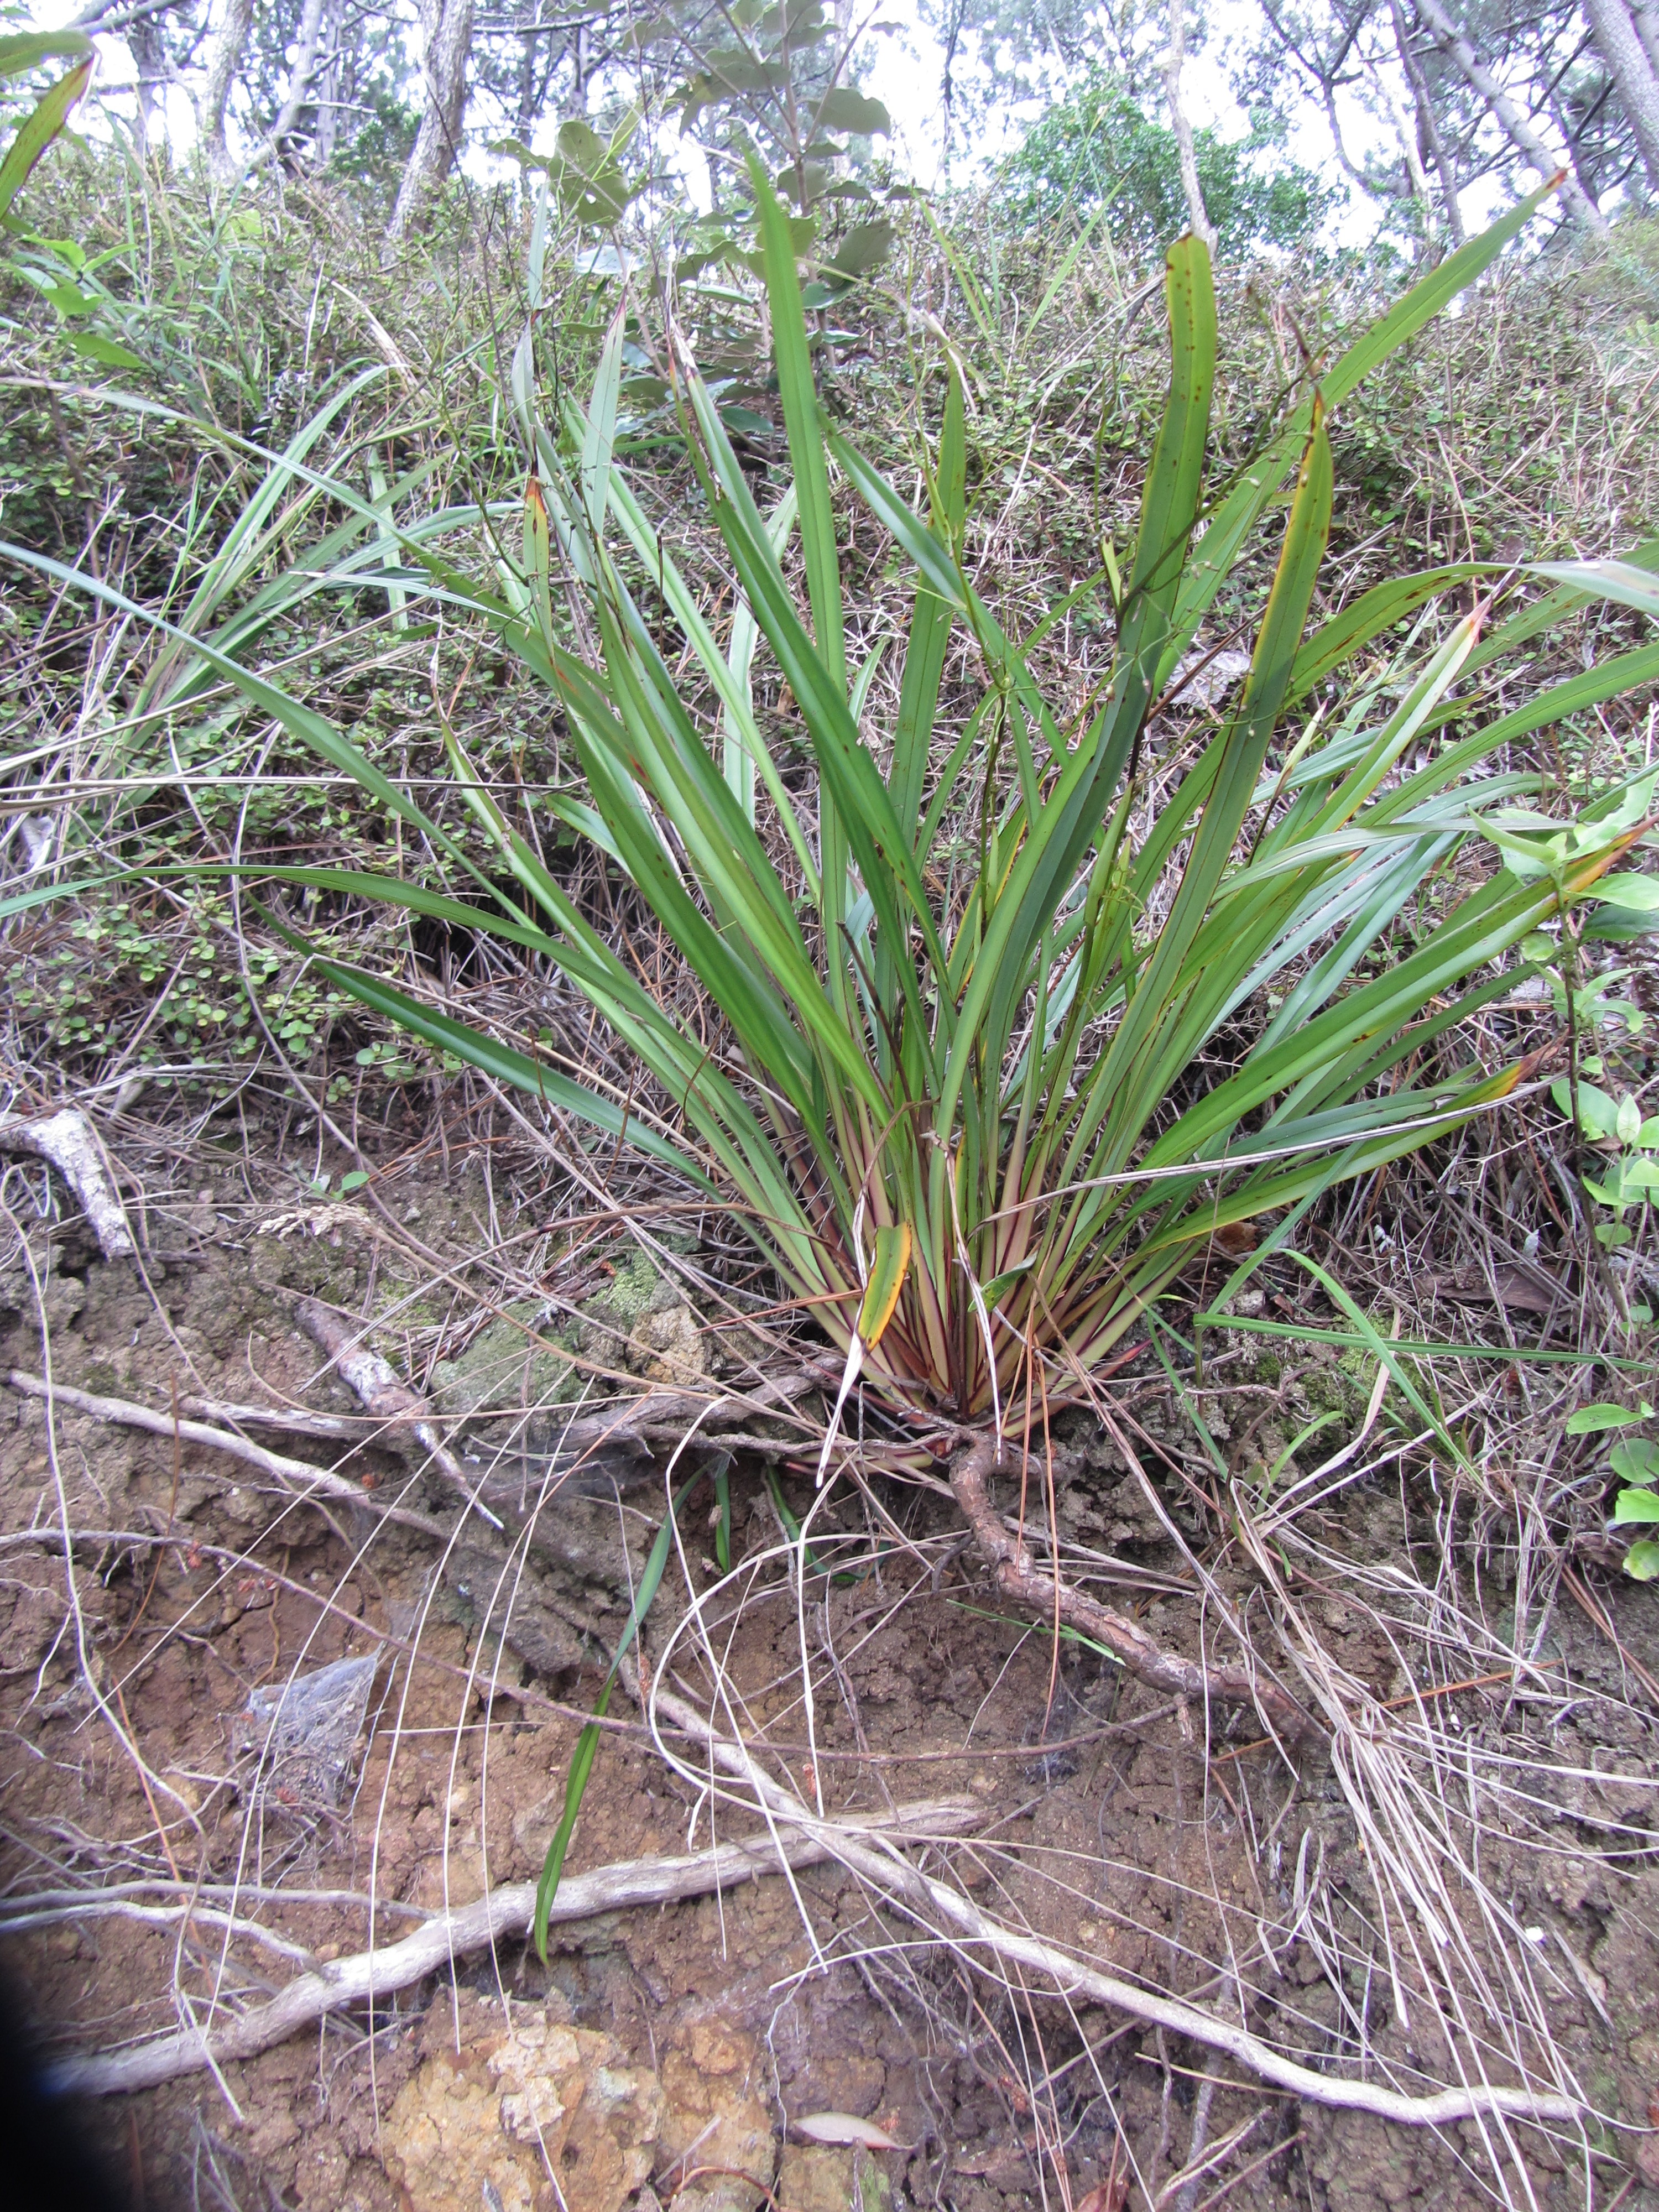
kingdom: Plantae
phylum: Tracheophyta
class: Liliopsida
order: Asparagales
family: Asphodelaceae
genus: Dianella
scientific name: Dianella haematica
